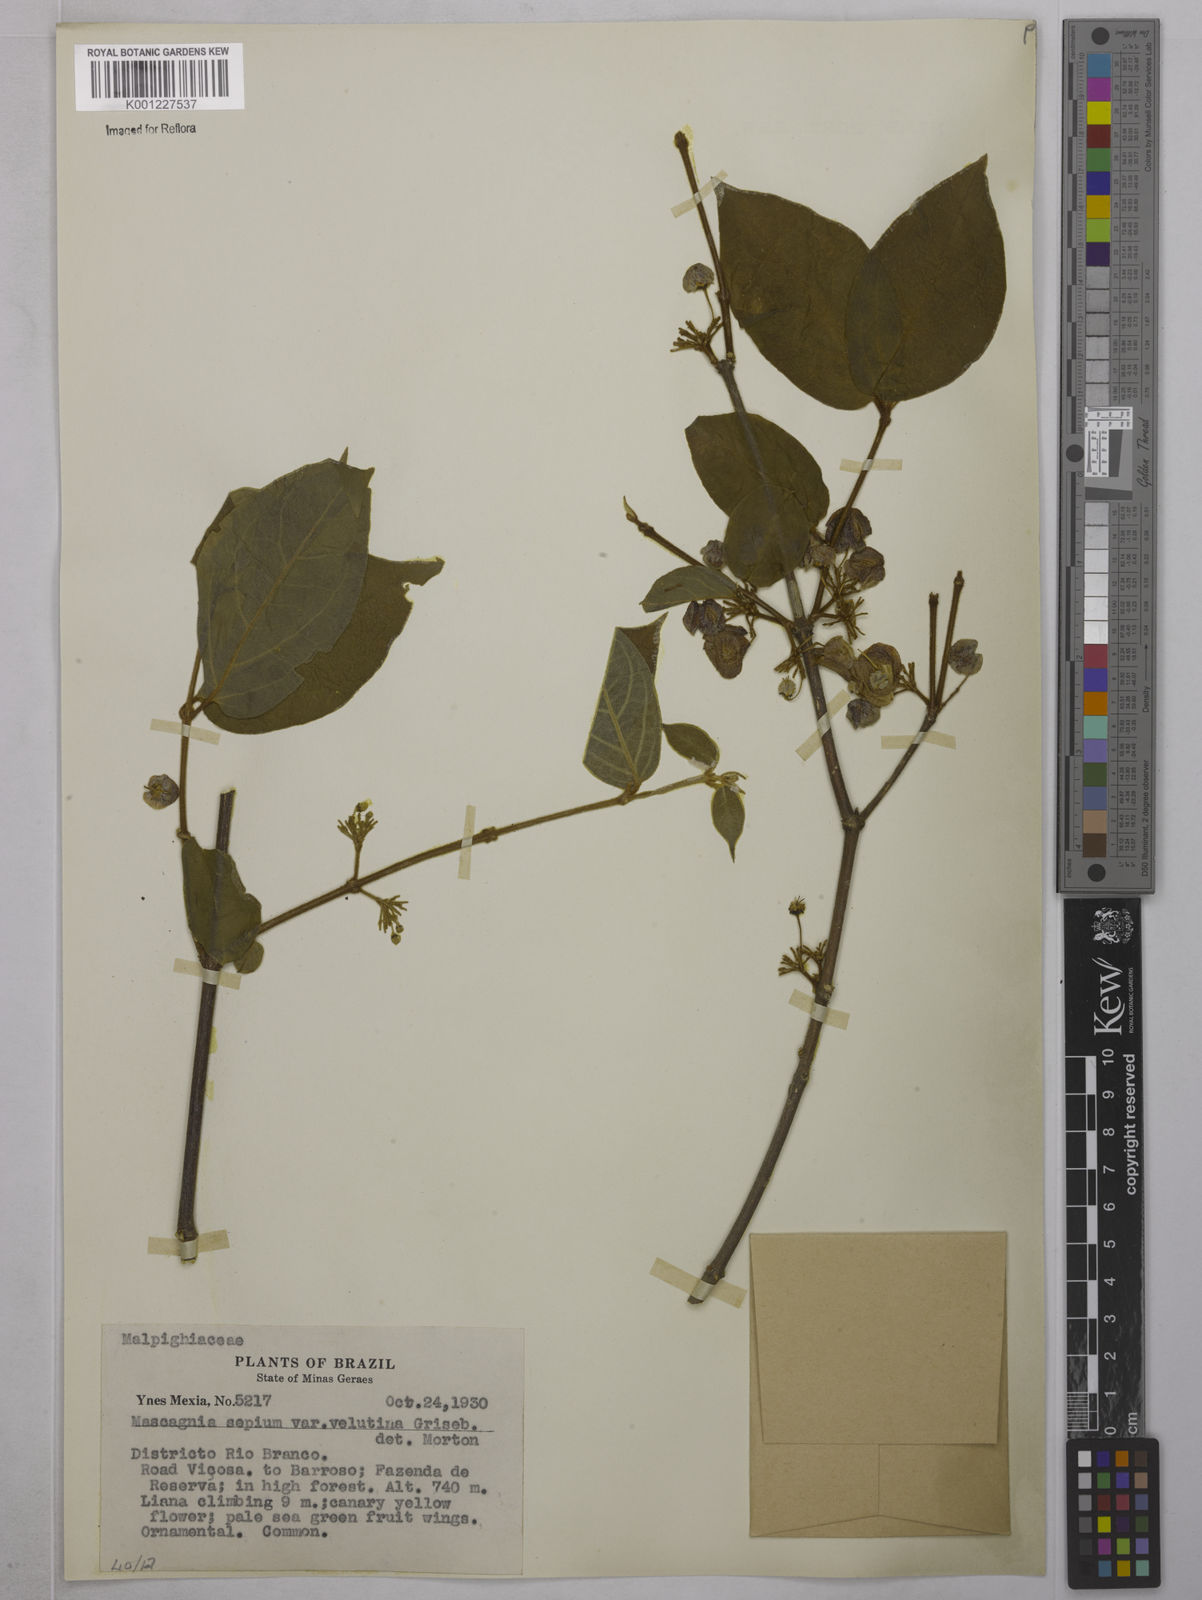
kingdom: Plantae
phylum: Tracheophyta
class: Magnoliopsida
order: Malpighiales
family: Malpighiaceae
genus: Mascagnia
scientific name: Mascagnia sepium
